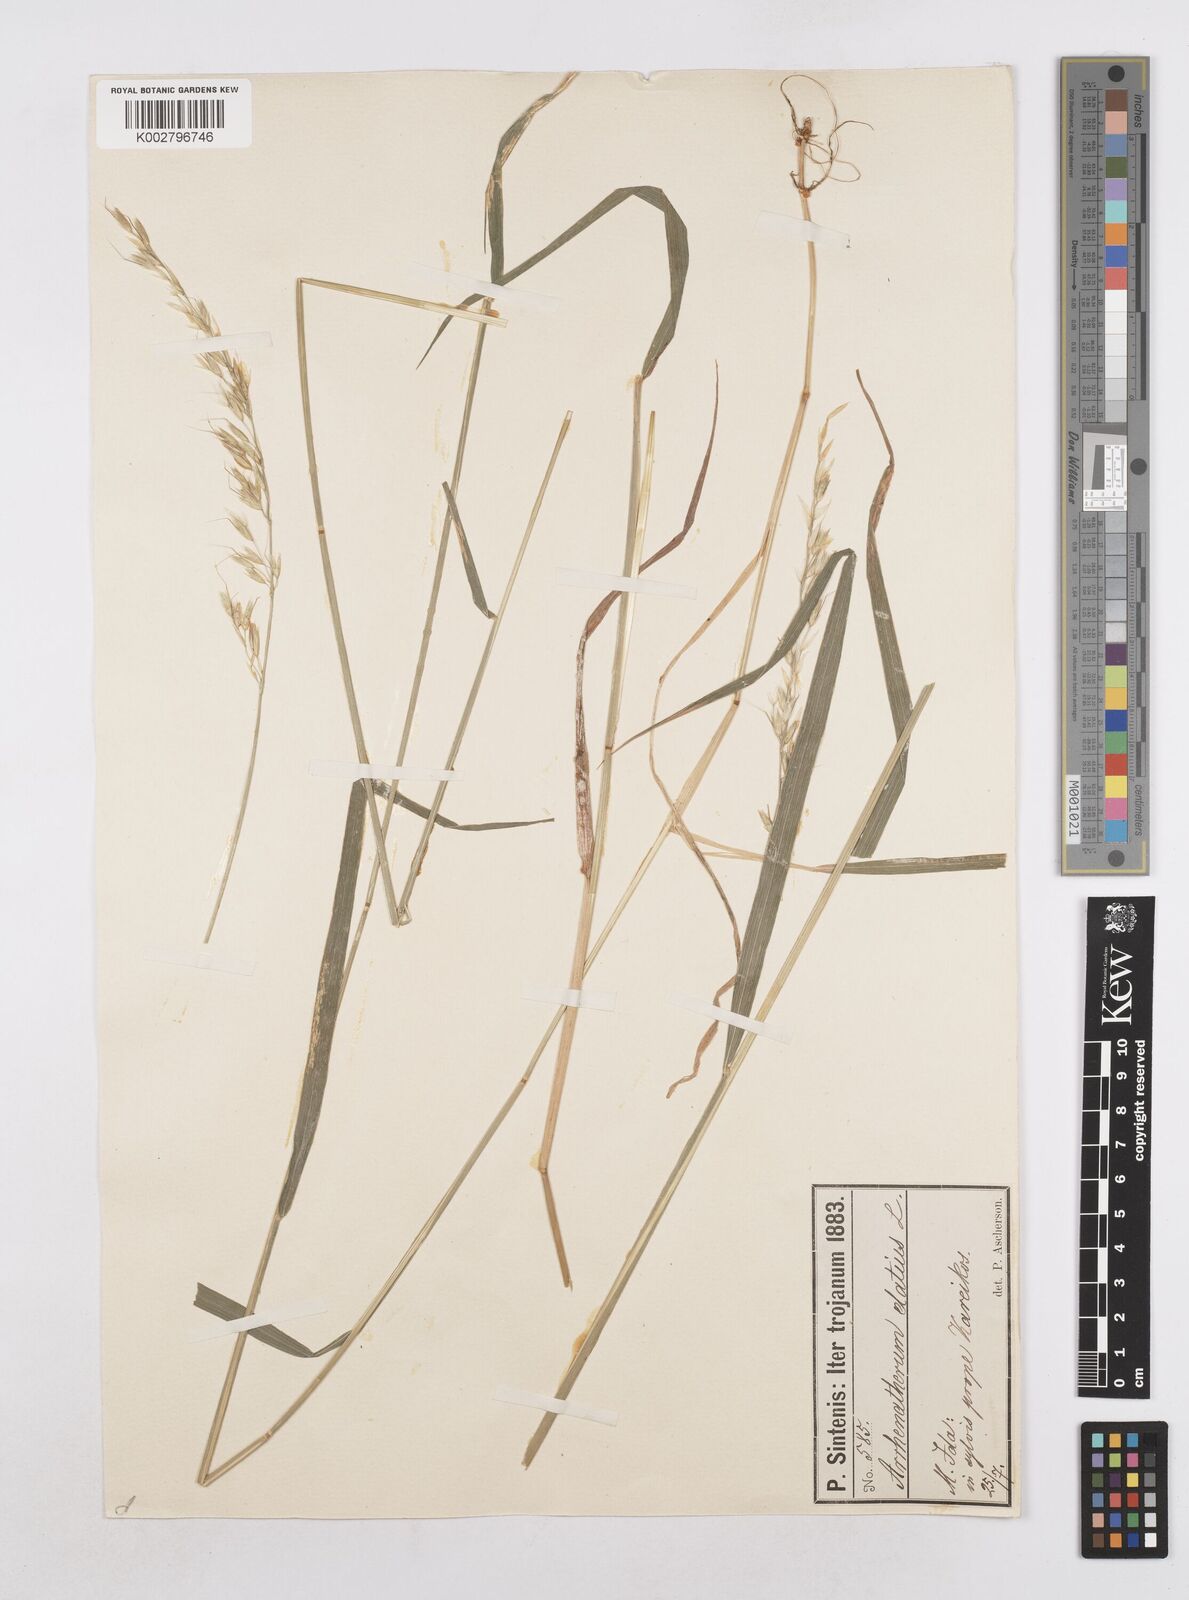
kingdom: Plantae
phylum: Tracheophyta
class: Liliopsida
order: Poales
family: Poaceae
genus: Arrhenatherum
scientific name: Arrhenatherum elatius
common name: Tall oatgrass
